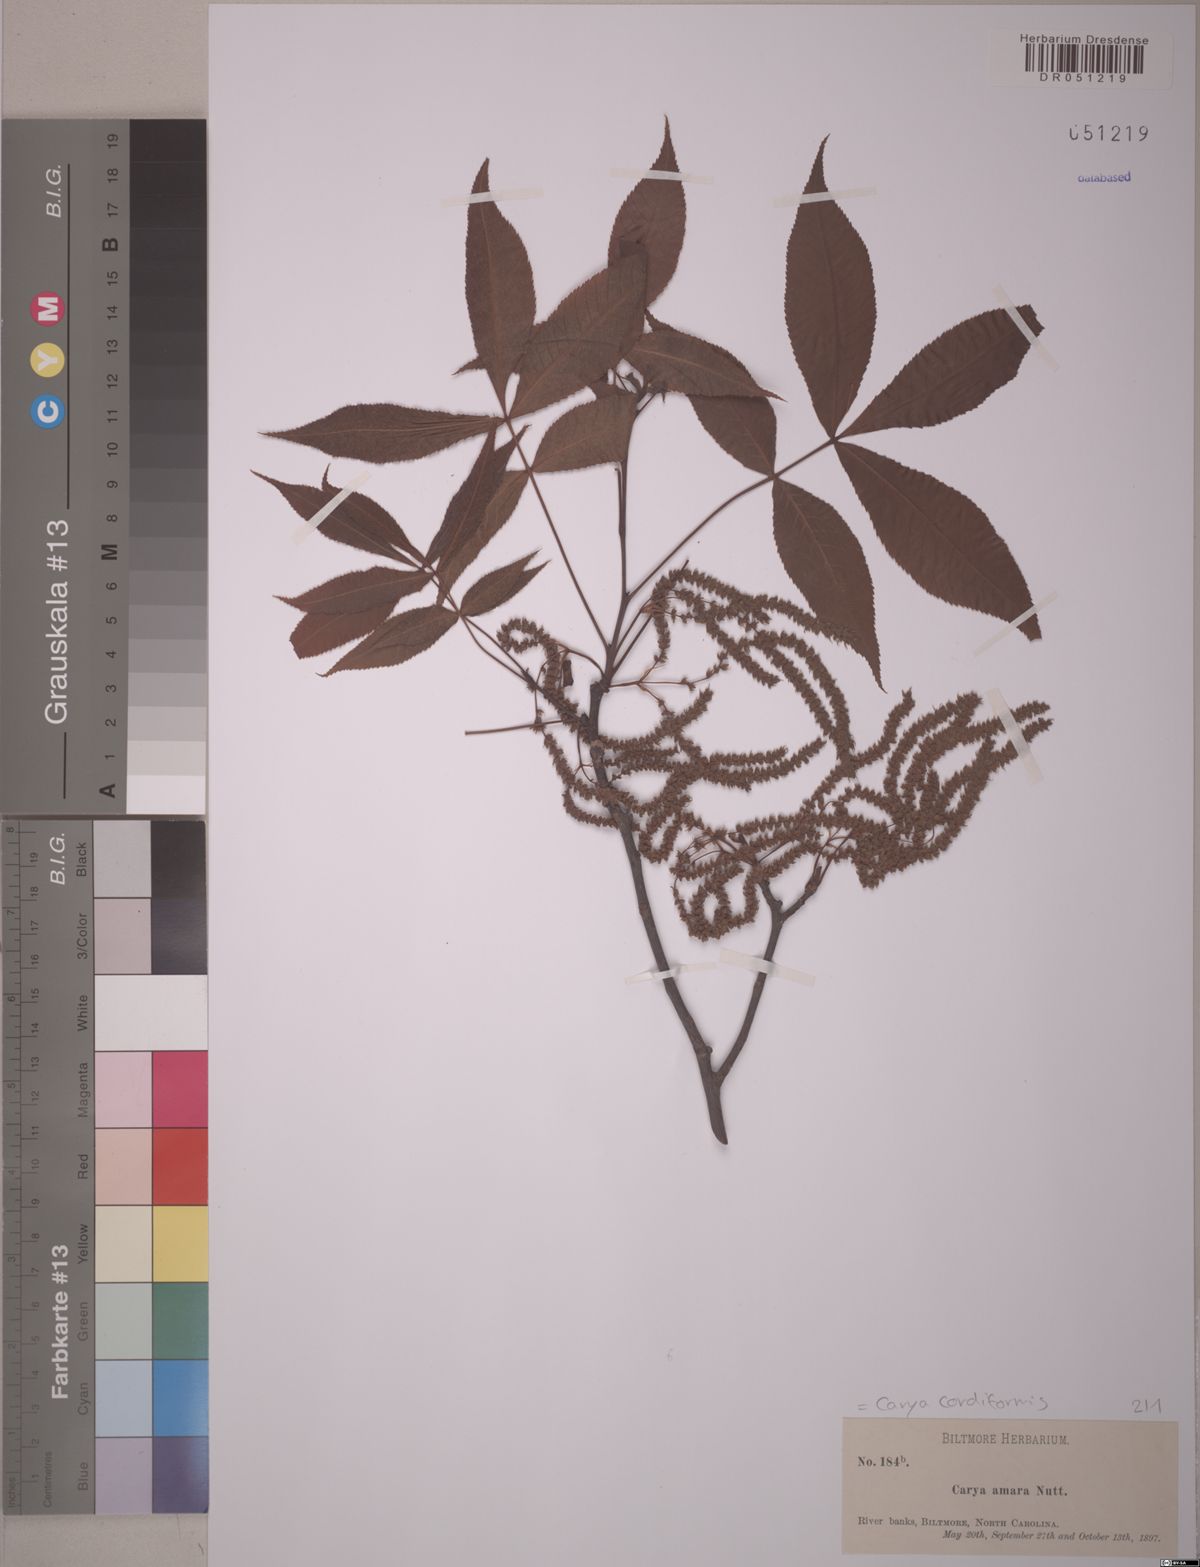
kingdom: Plantae
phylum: Tracheophyta
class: Magnoliopsida
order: Fagales
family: Juglandaceae
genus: Carya
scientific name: Carya cordiformis
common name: Bitternut hickory
